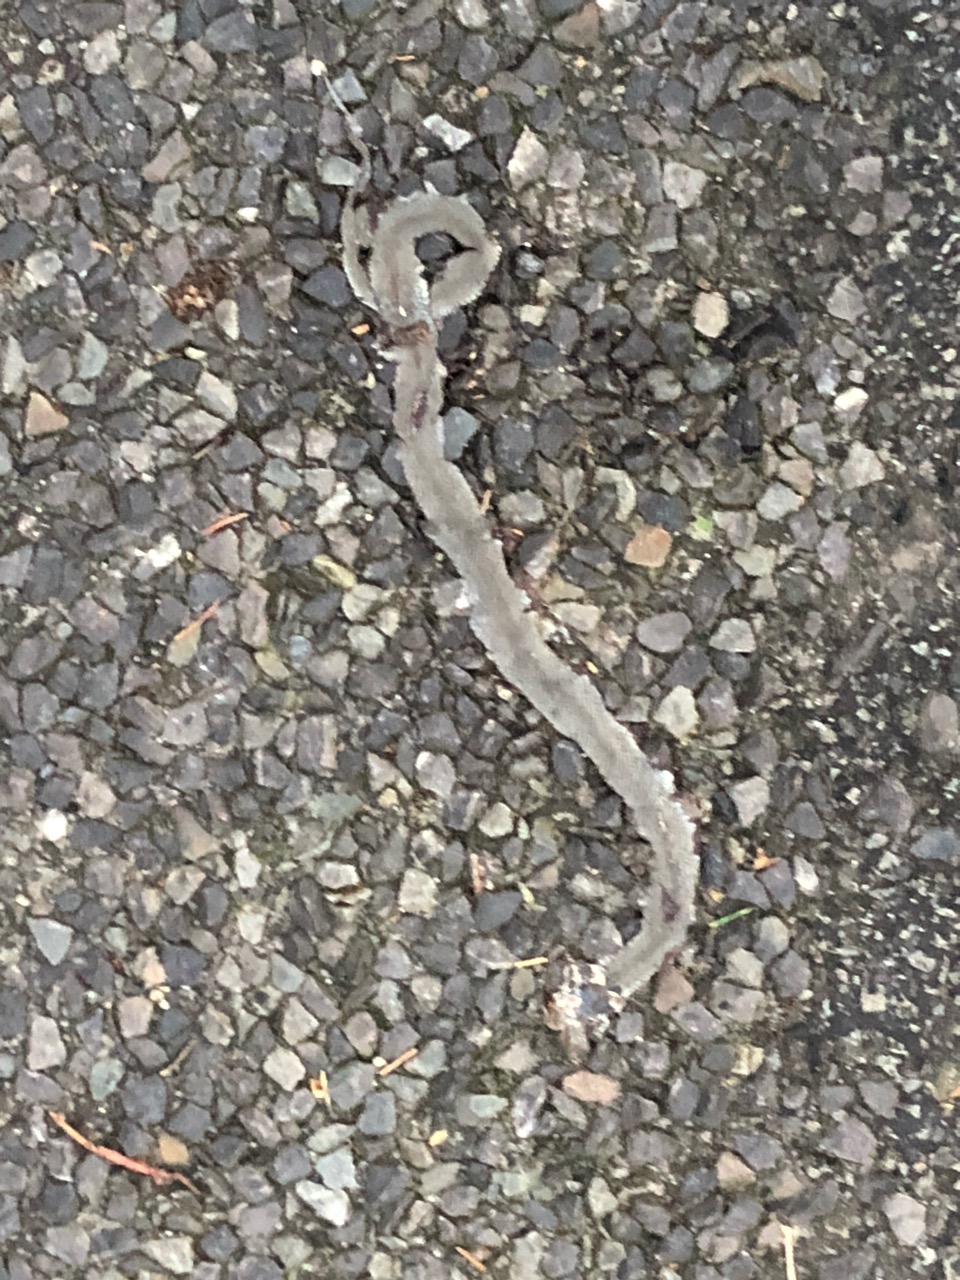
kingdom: Animalia
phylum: Chordata
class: Squamata
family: Colubridae
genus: Natrix
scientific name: Natrix natrix
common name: Grass snake
